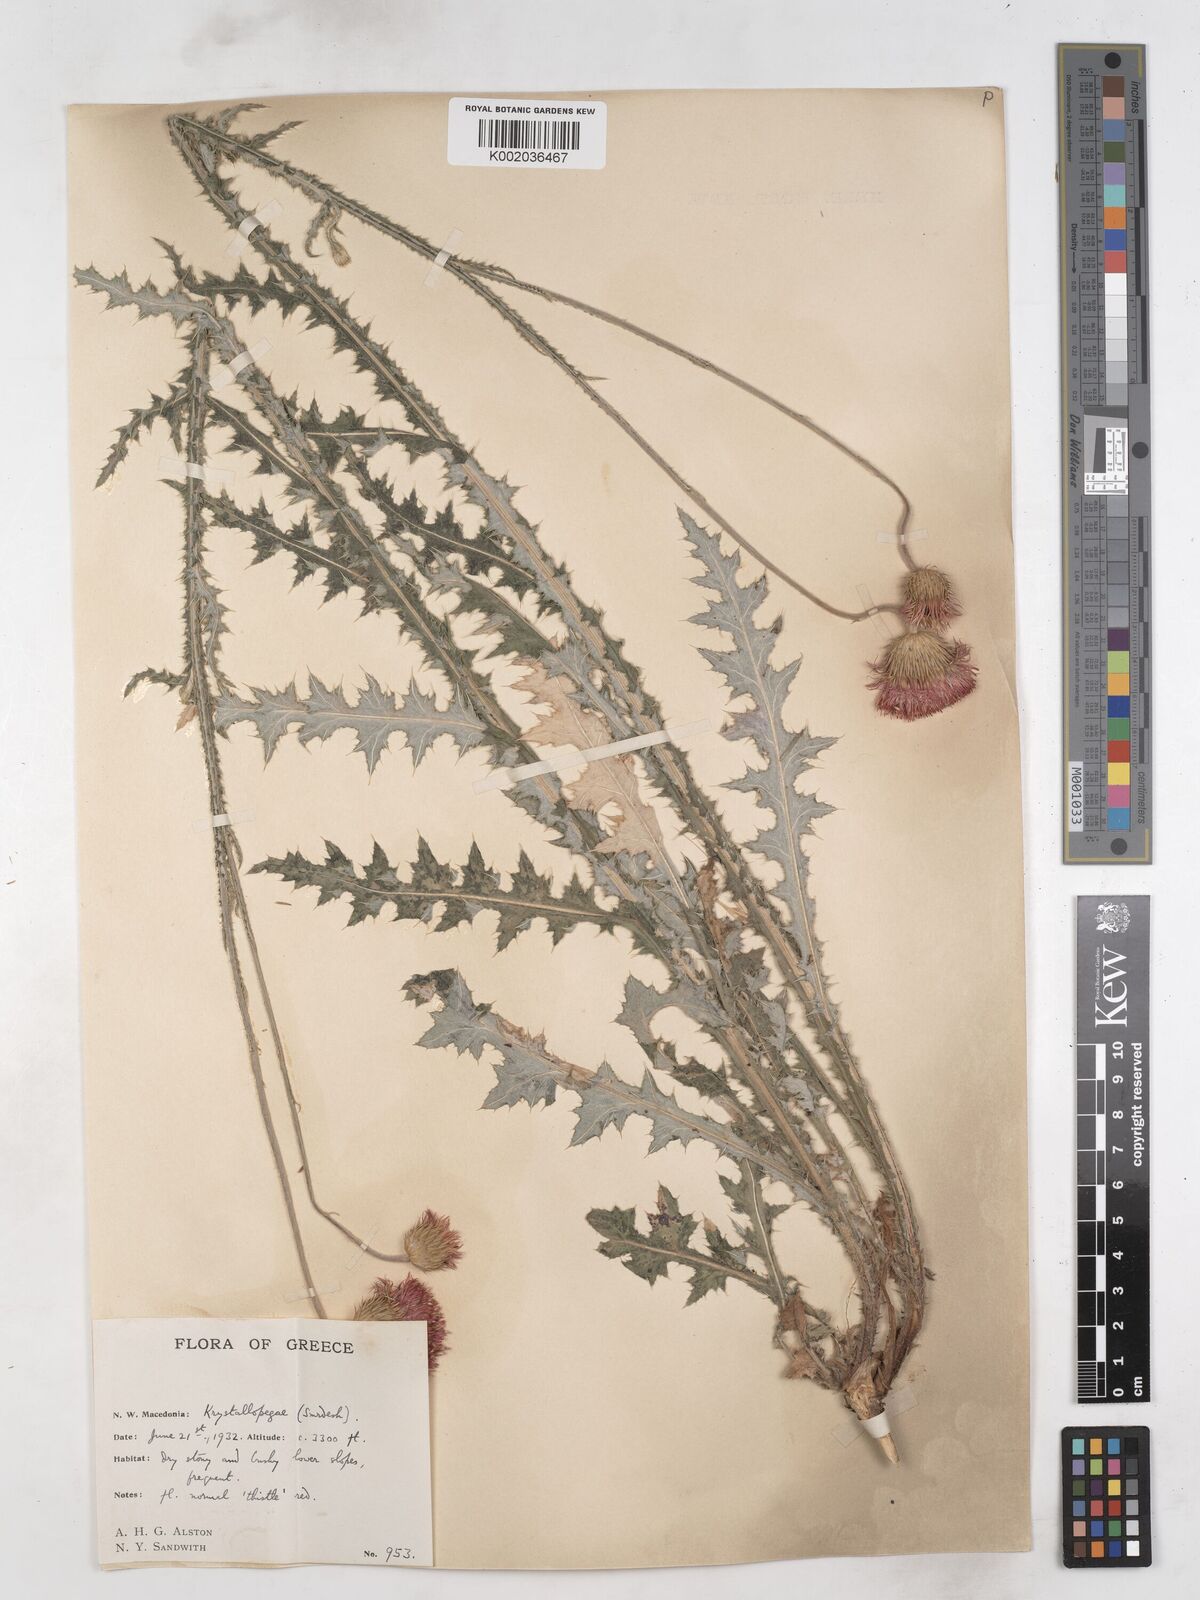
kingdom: Plantae
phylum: Tracheophyta
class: Magnoliopsida
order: Asterales
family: Asteraceae
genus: Carduus
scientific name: Carduus candicans
